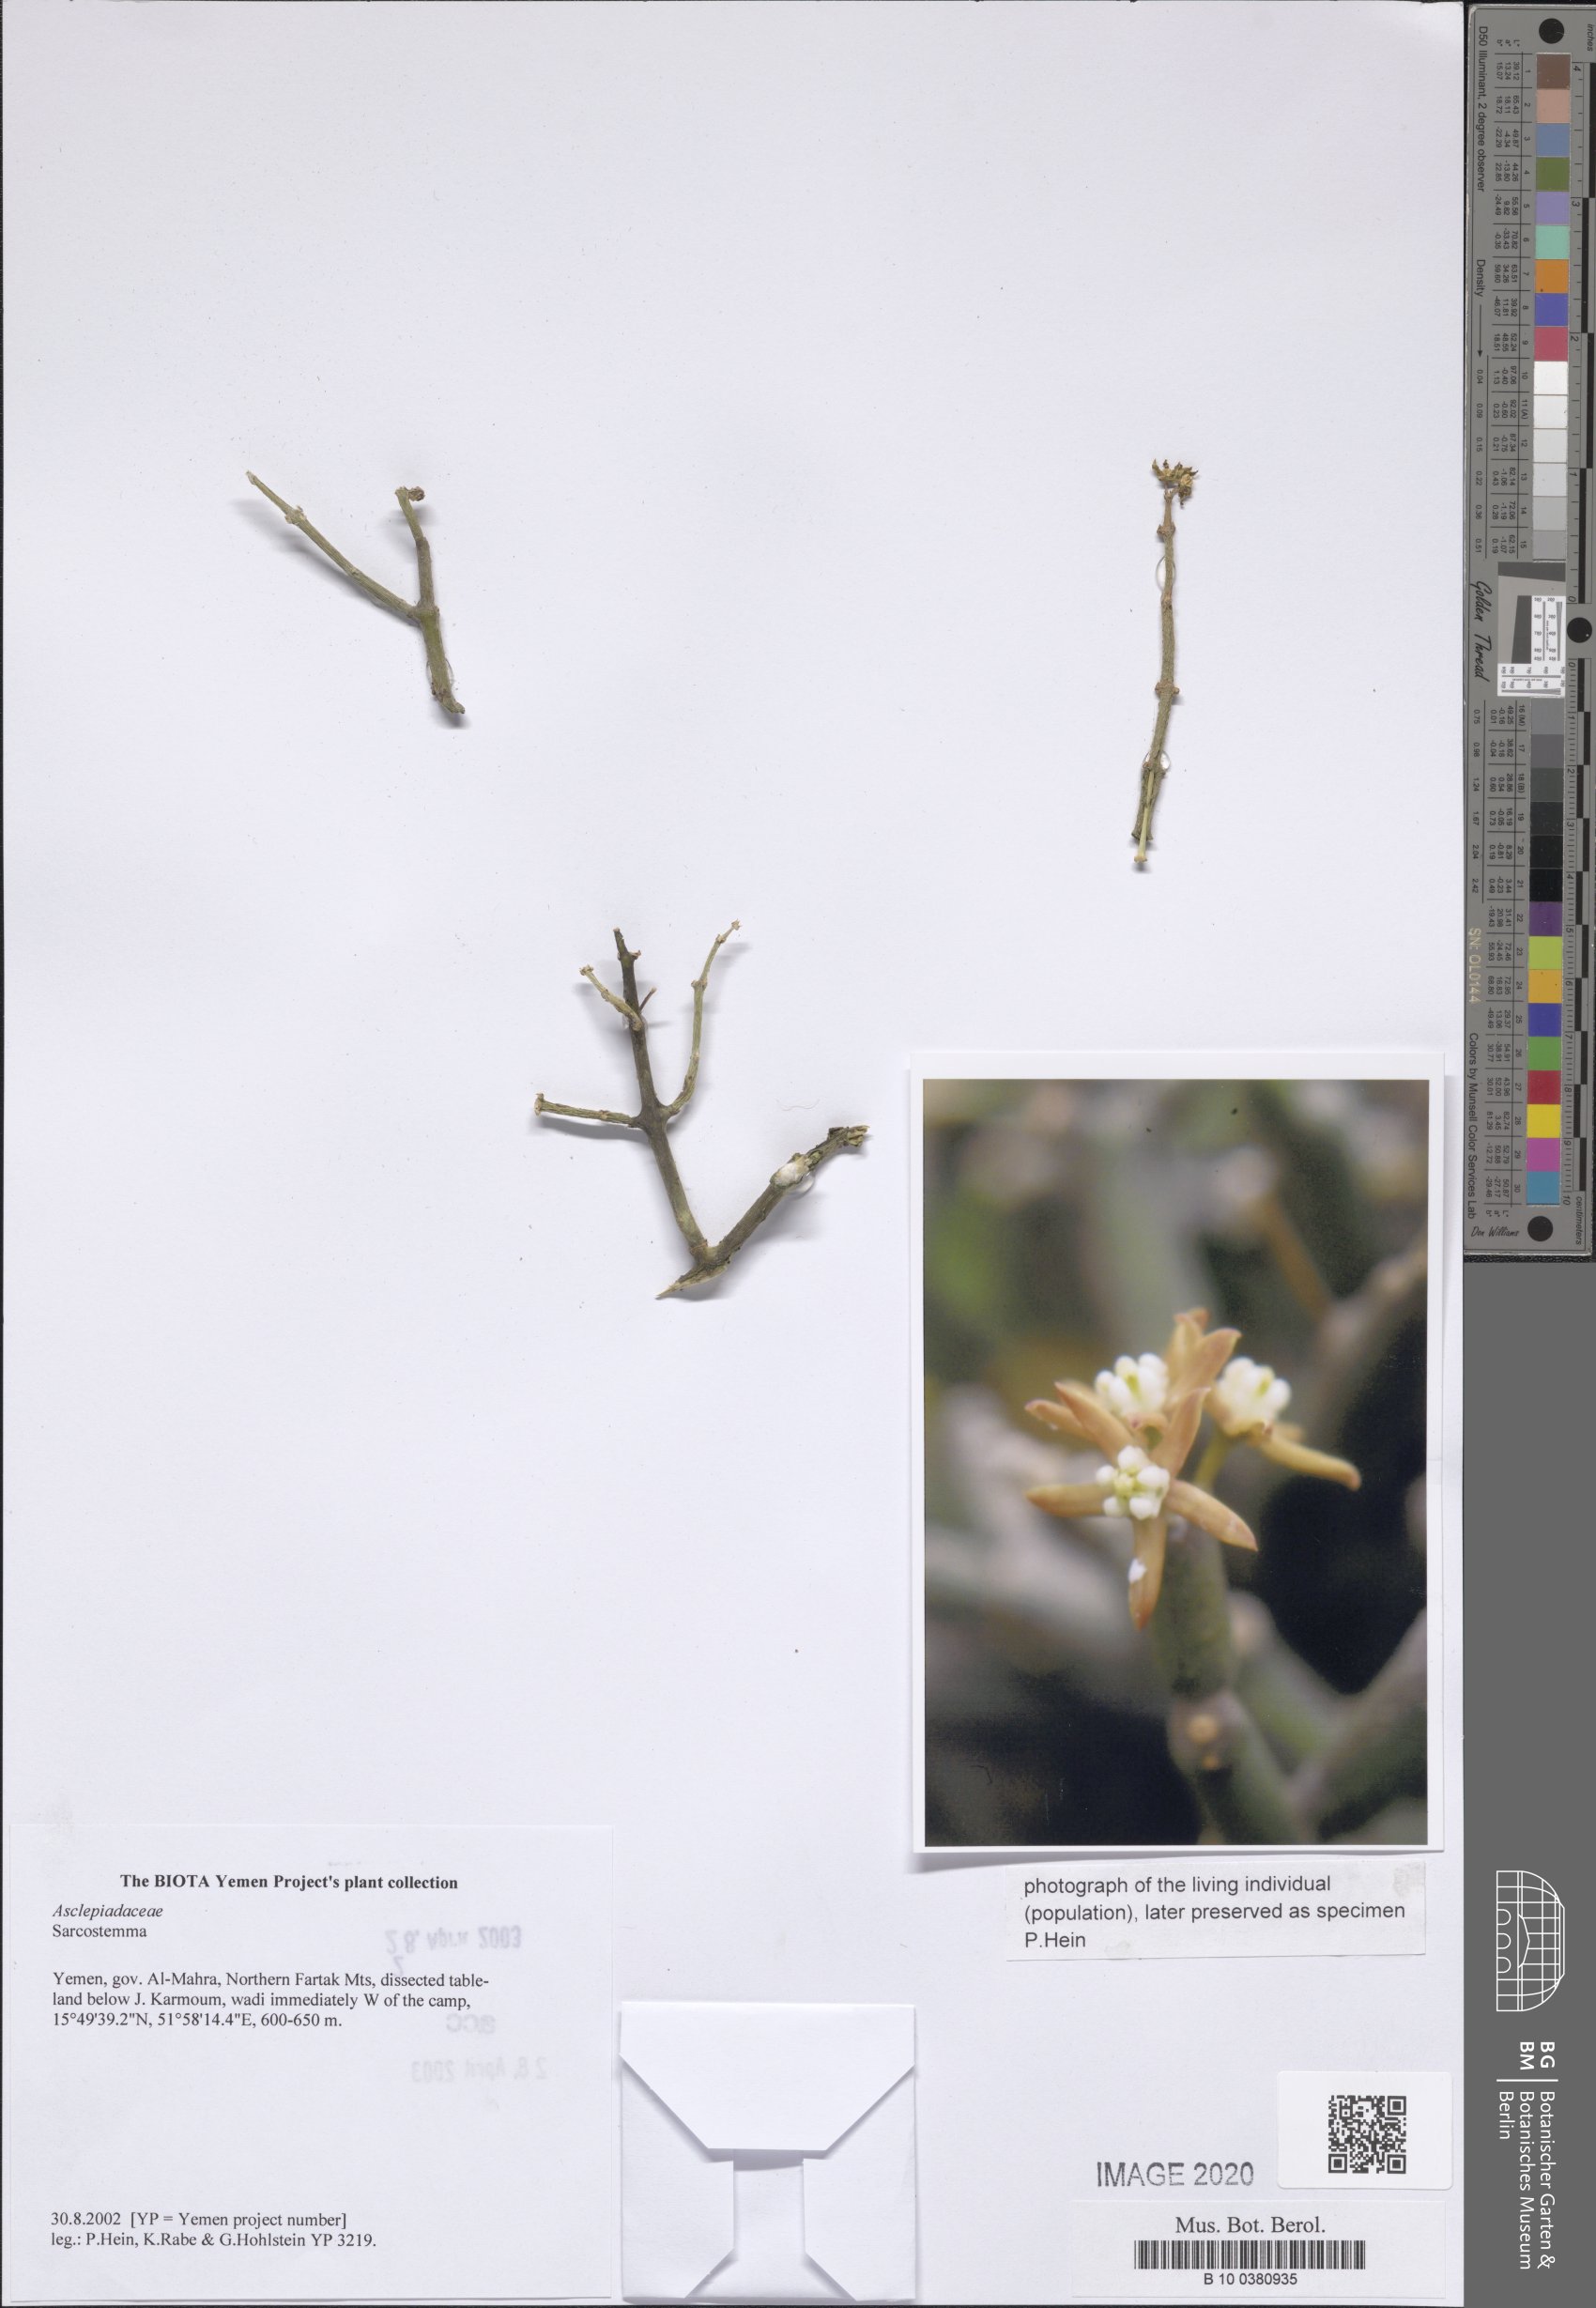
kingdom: Plantae
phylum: Tracheophyta
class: Magnoliopsida
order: Gentianales
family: Apocynaceae
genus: Cynanchum
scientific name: Cynanchum viminale
